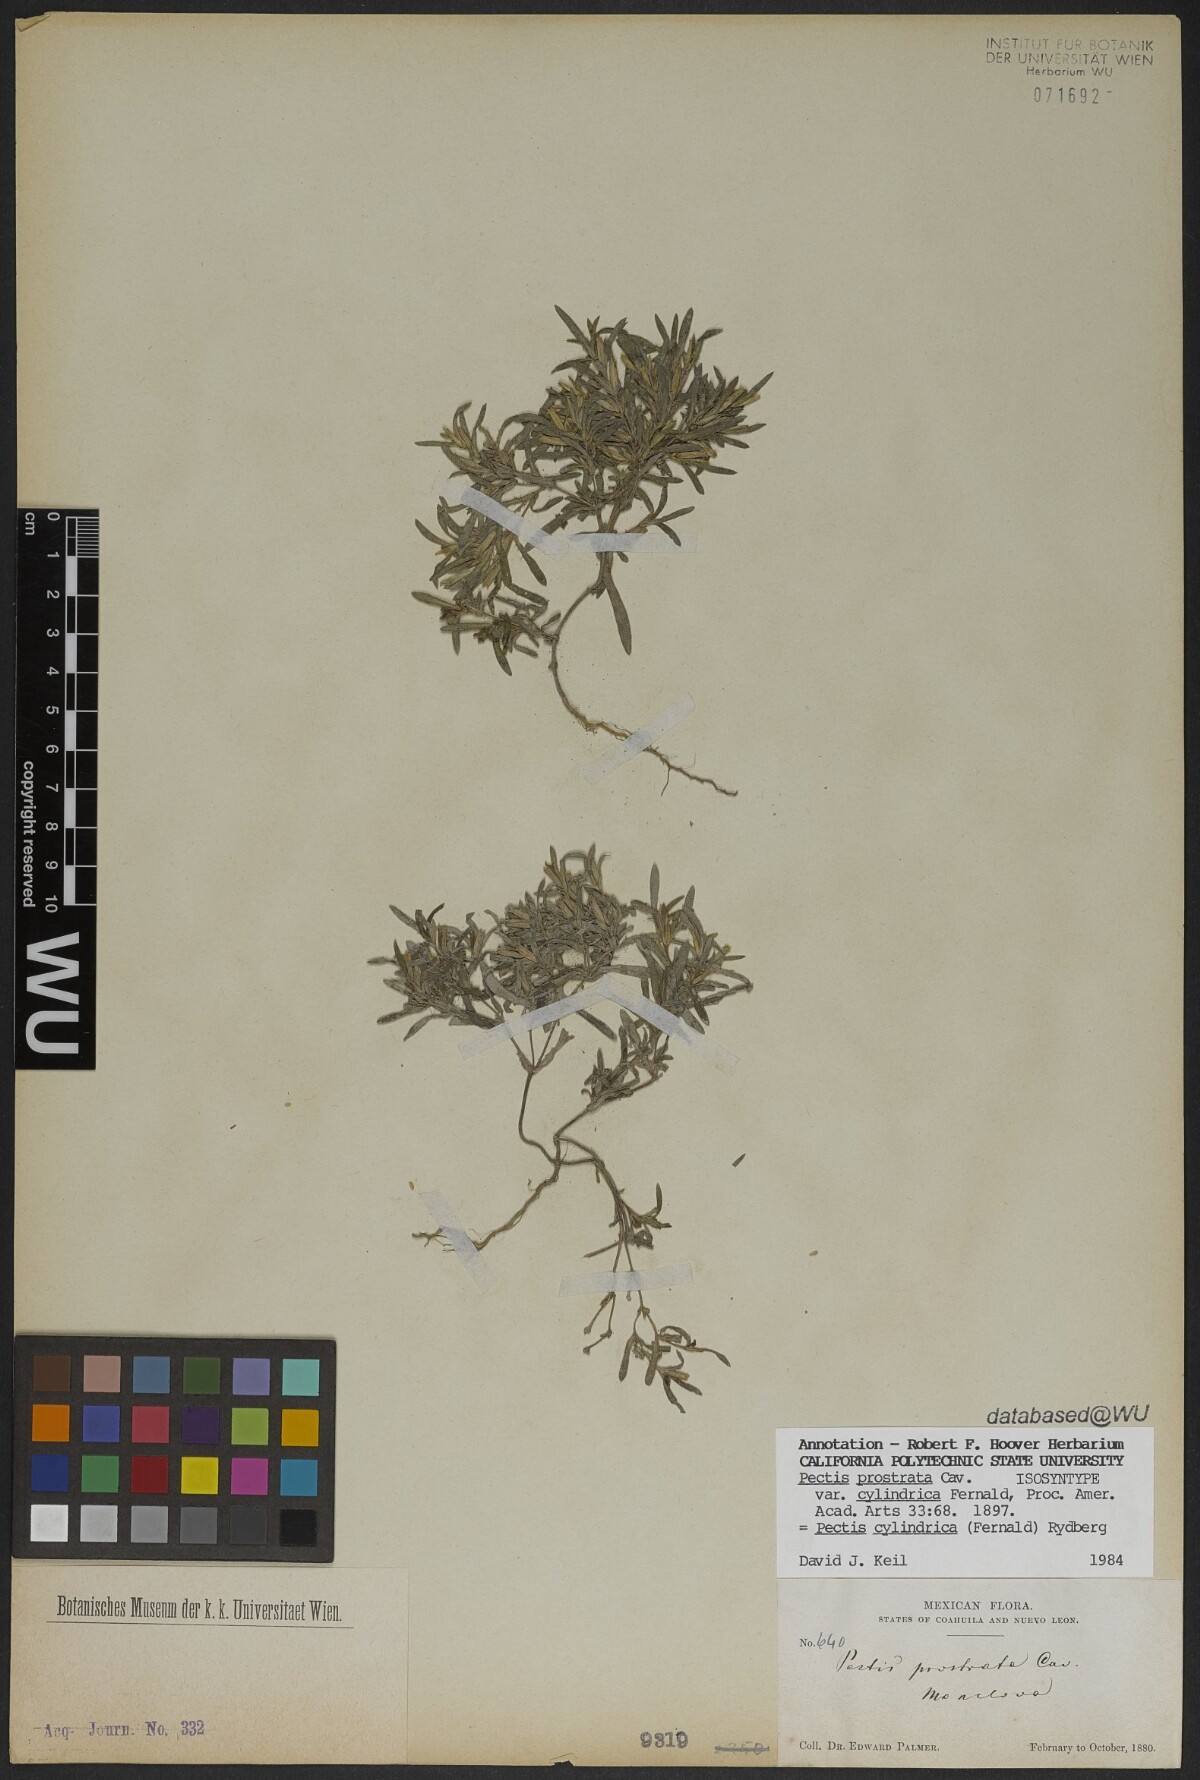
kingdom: Plantae
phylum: Tracheophyta
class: Magnoliopsida
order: Asterales
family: Asteraceae
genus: Pectis
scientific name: Pectis cylindrica
